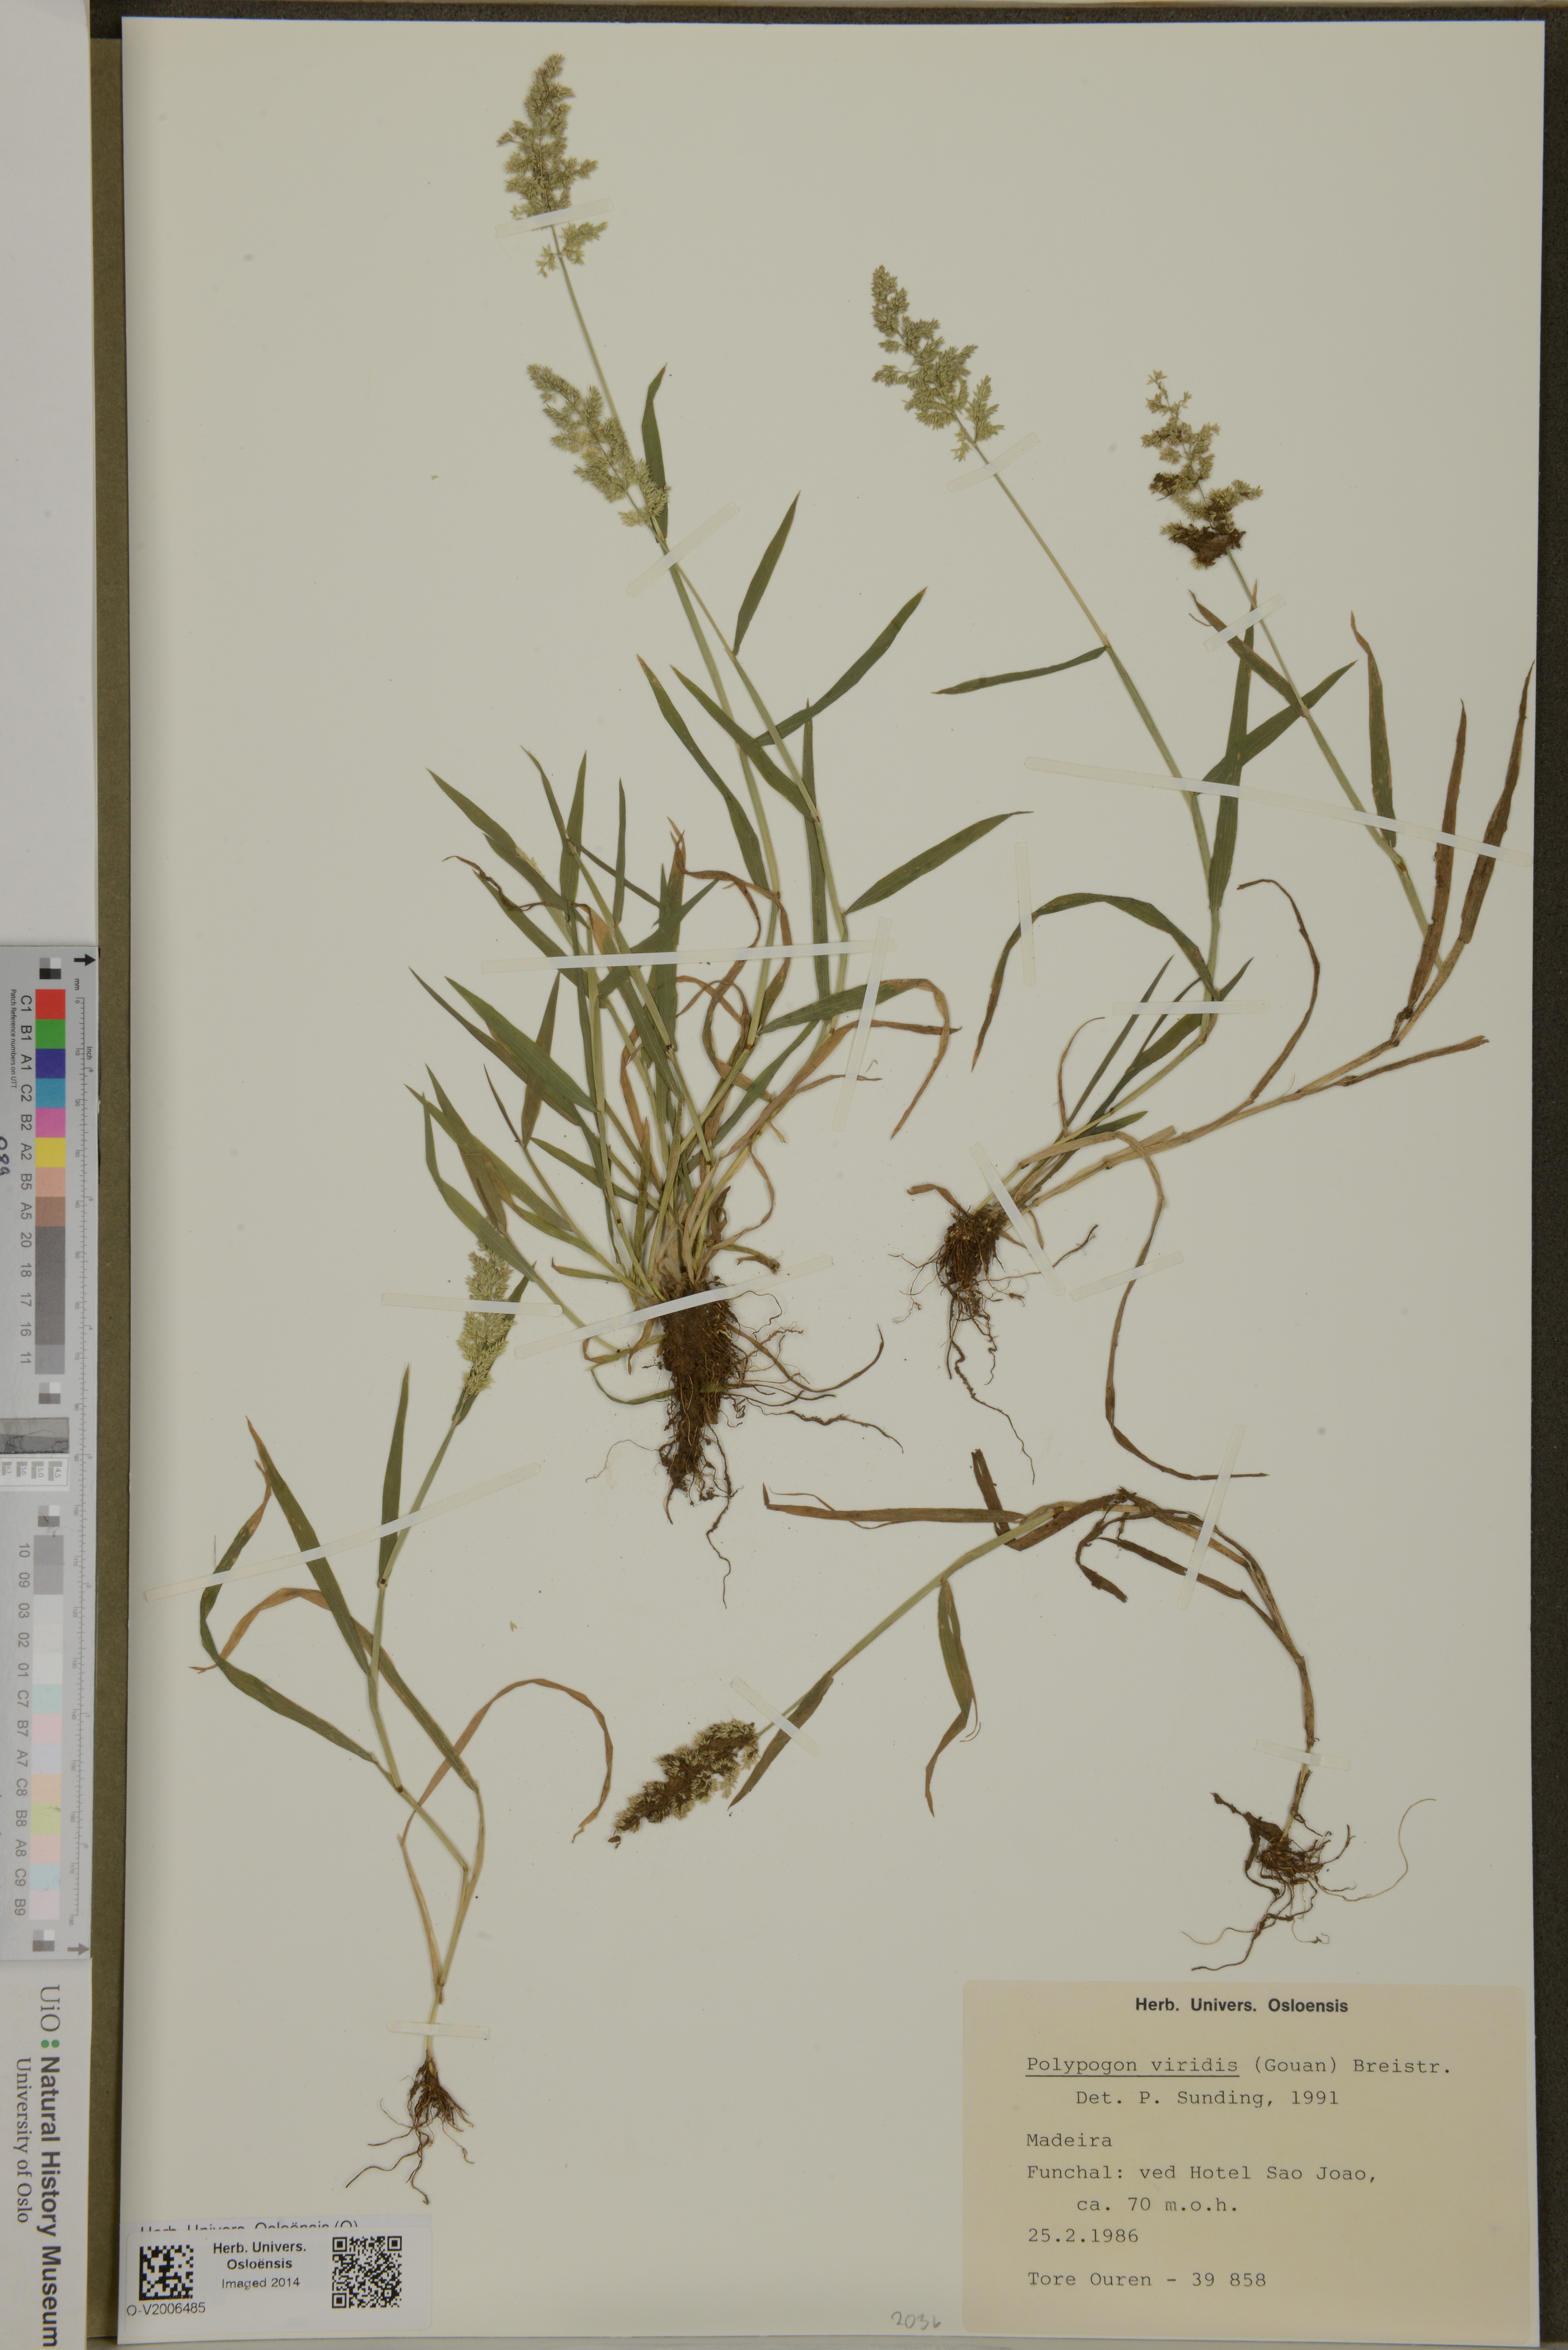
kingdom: Plantae
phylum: Tracheophyta
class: Liliopsida
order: Poales
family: Poaceae
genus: Polypogon
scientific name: Polypogon viridis
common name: Water bent
